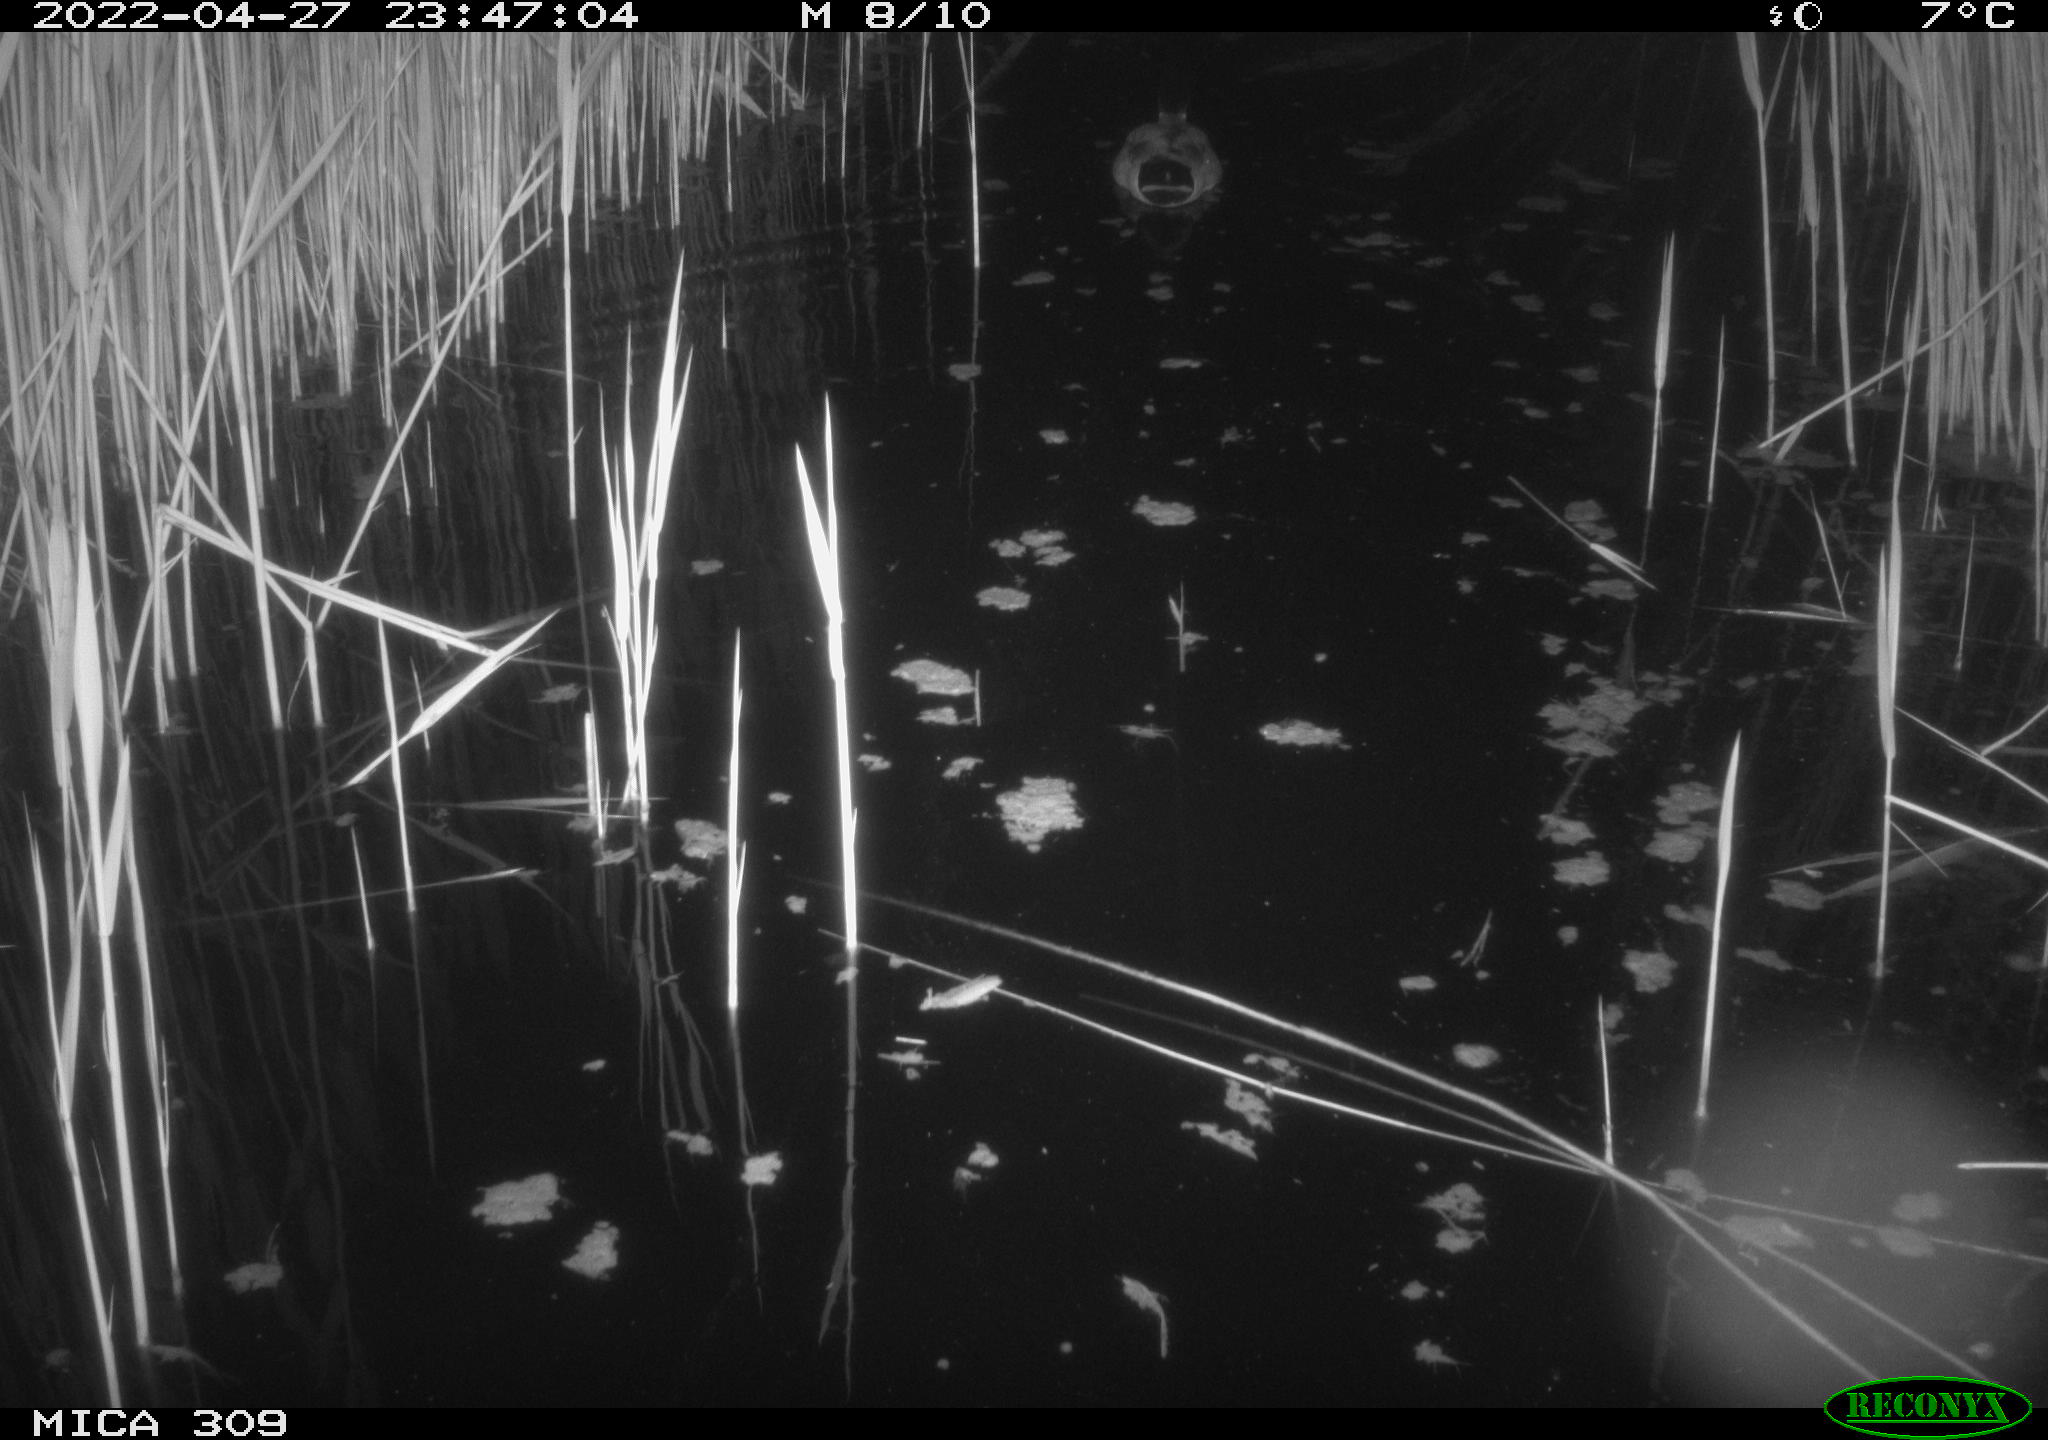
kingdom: Animalia
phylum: Chordata
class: Aves
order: Anseriformes
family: Anatidae
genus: Anas
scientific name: Anas platyrhynchos
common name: Mallard
